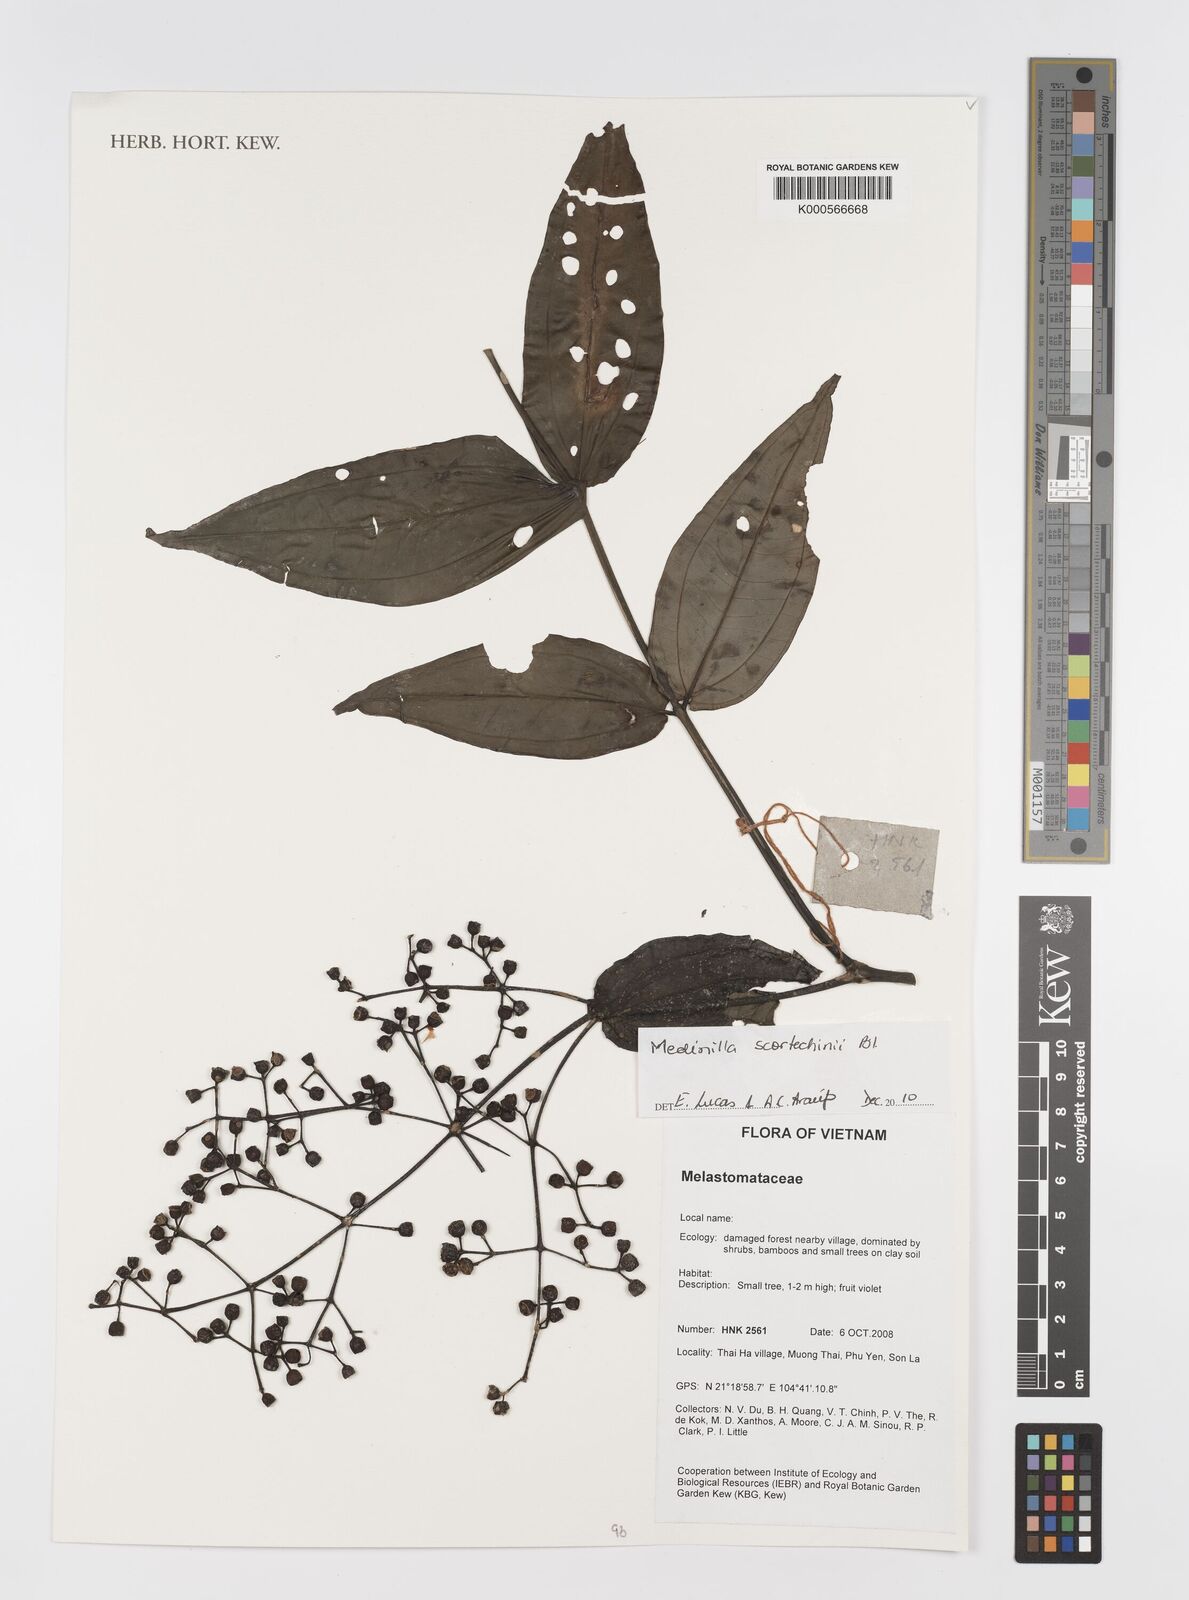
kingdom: Plantae
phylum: Tracheophyta
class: Magnoliopsida
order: Myrtales
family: Melastomataceae
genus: Medinilla
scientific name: Medinilla
